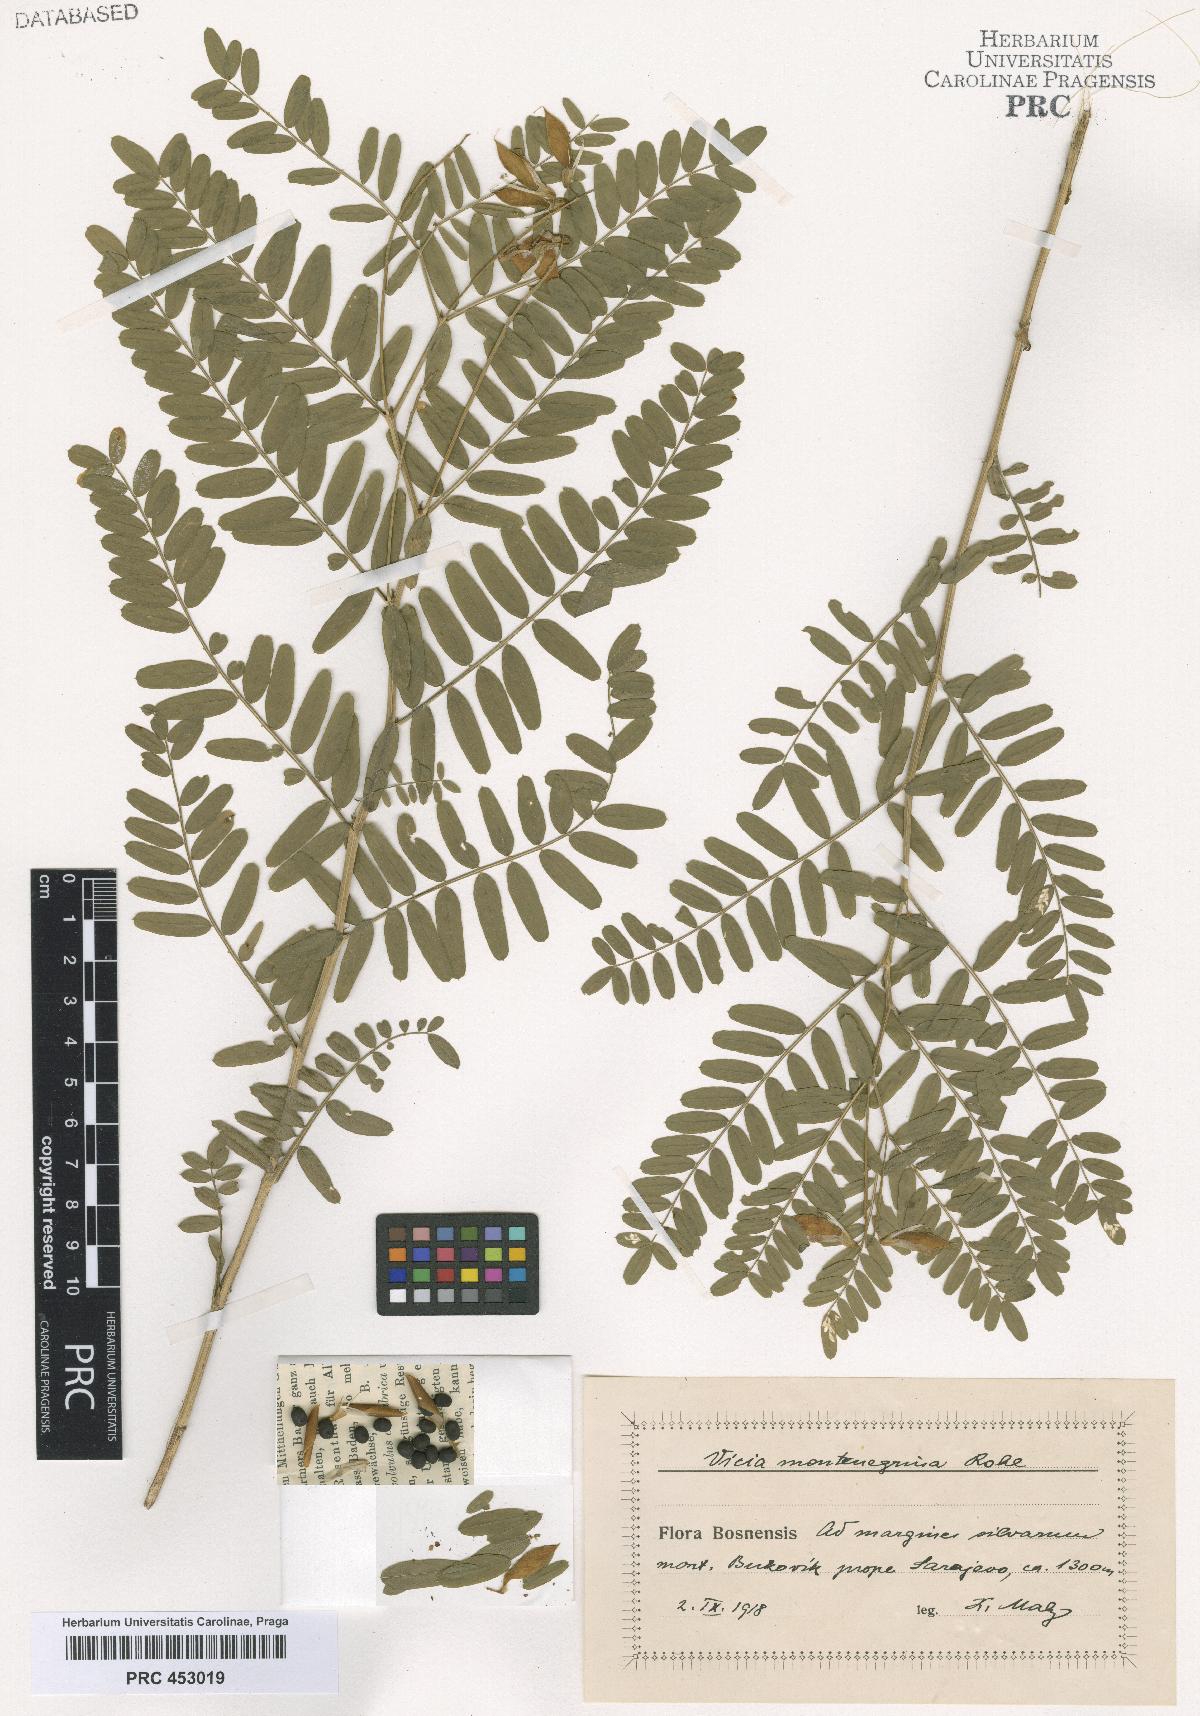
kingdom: Plantae
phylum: Tracheophyta
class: Magnoliopsida
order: Fabales
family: Fabaceae
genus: Vicia
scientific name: Vicia montenegrina
